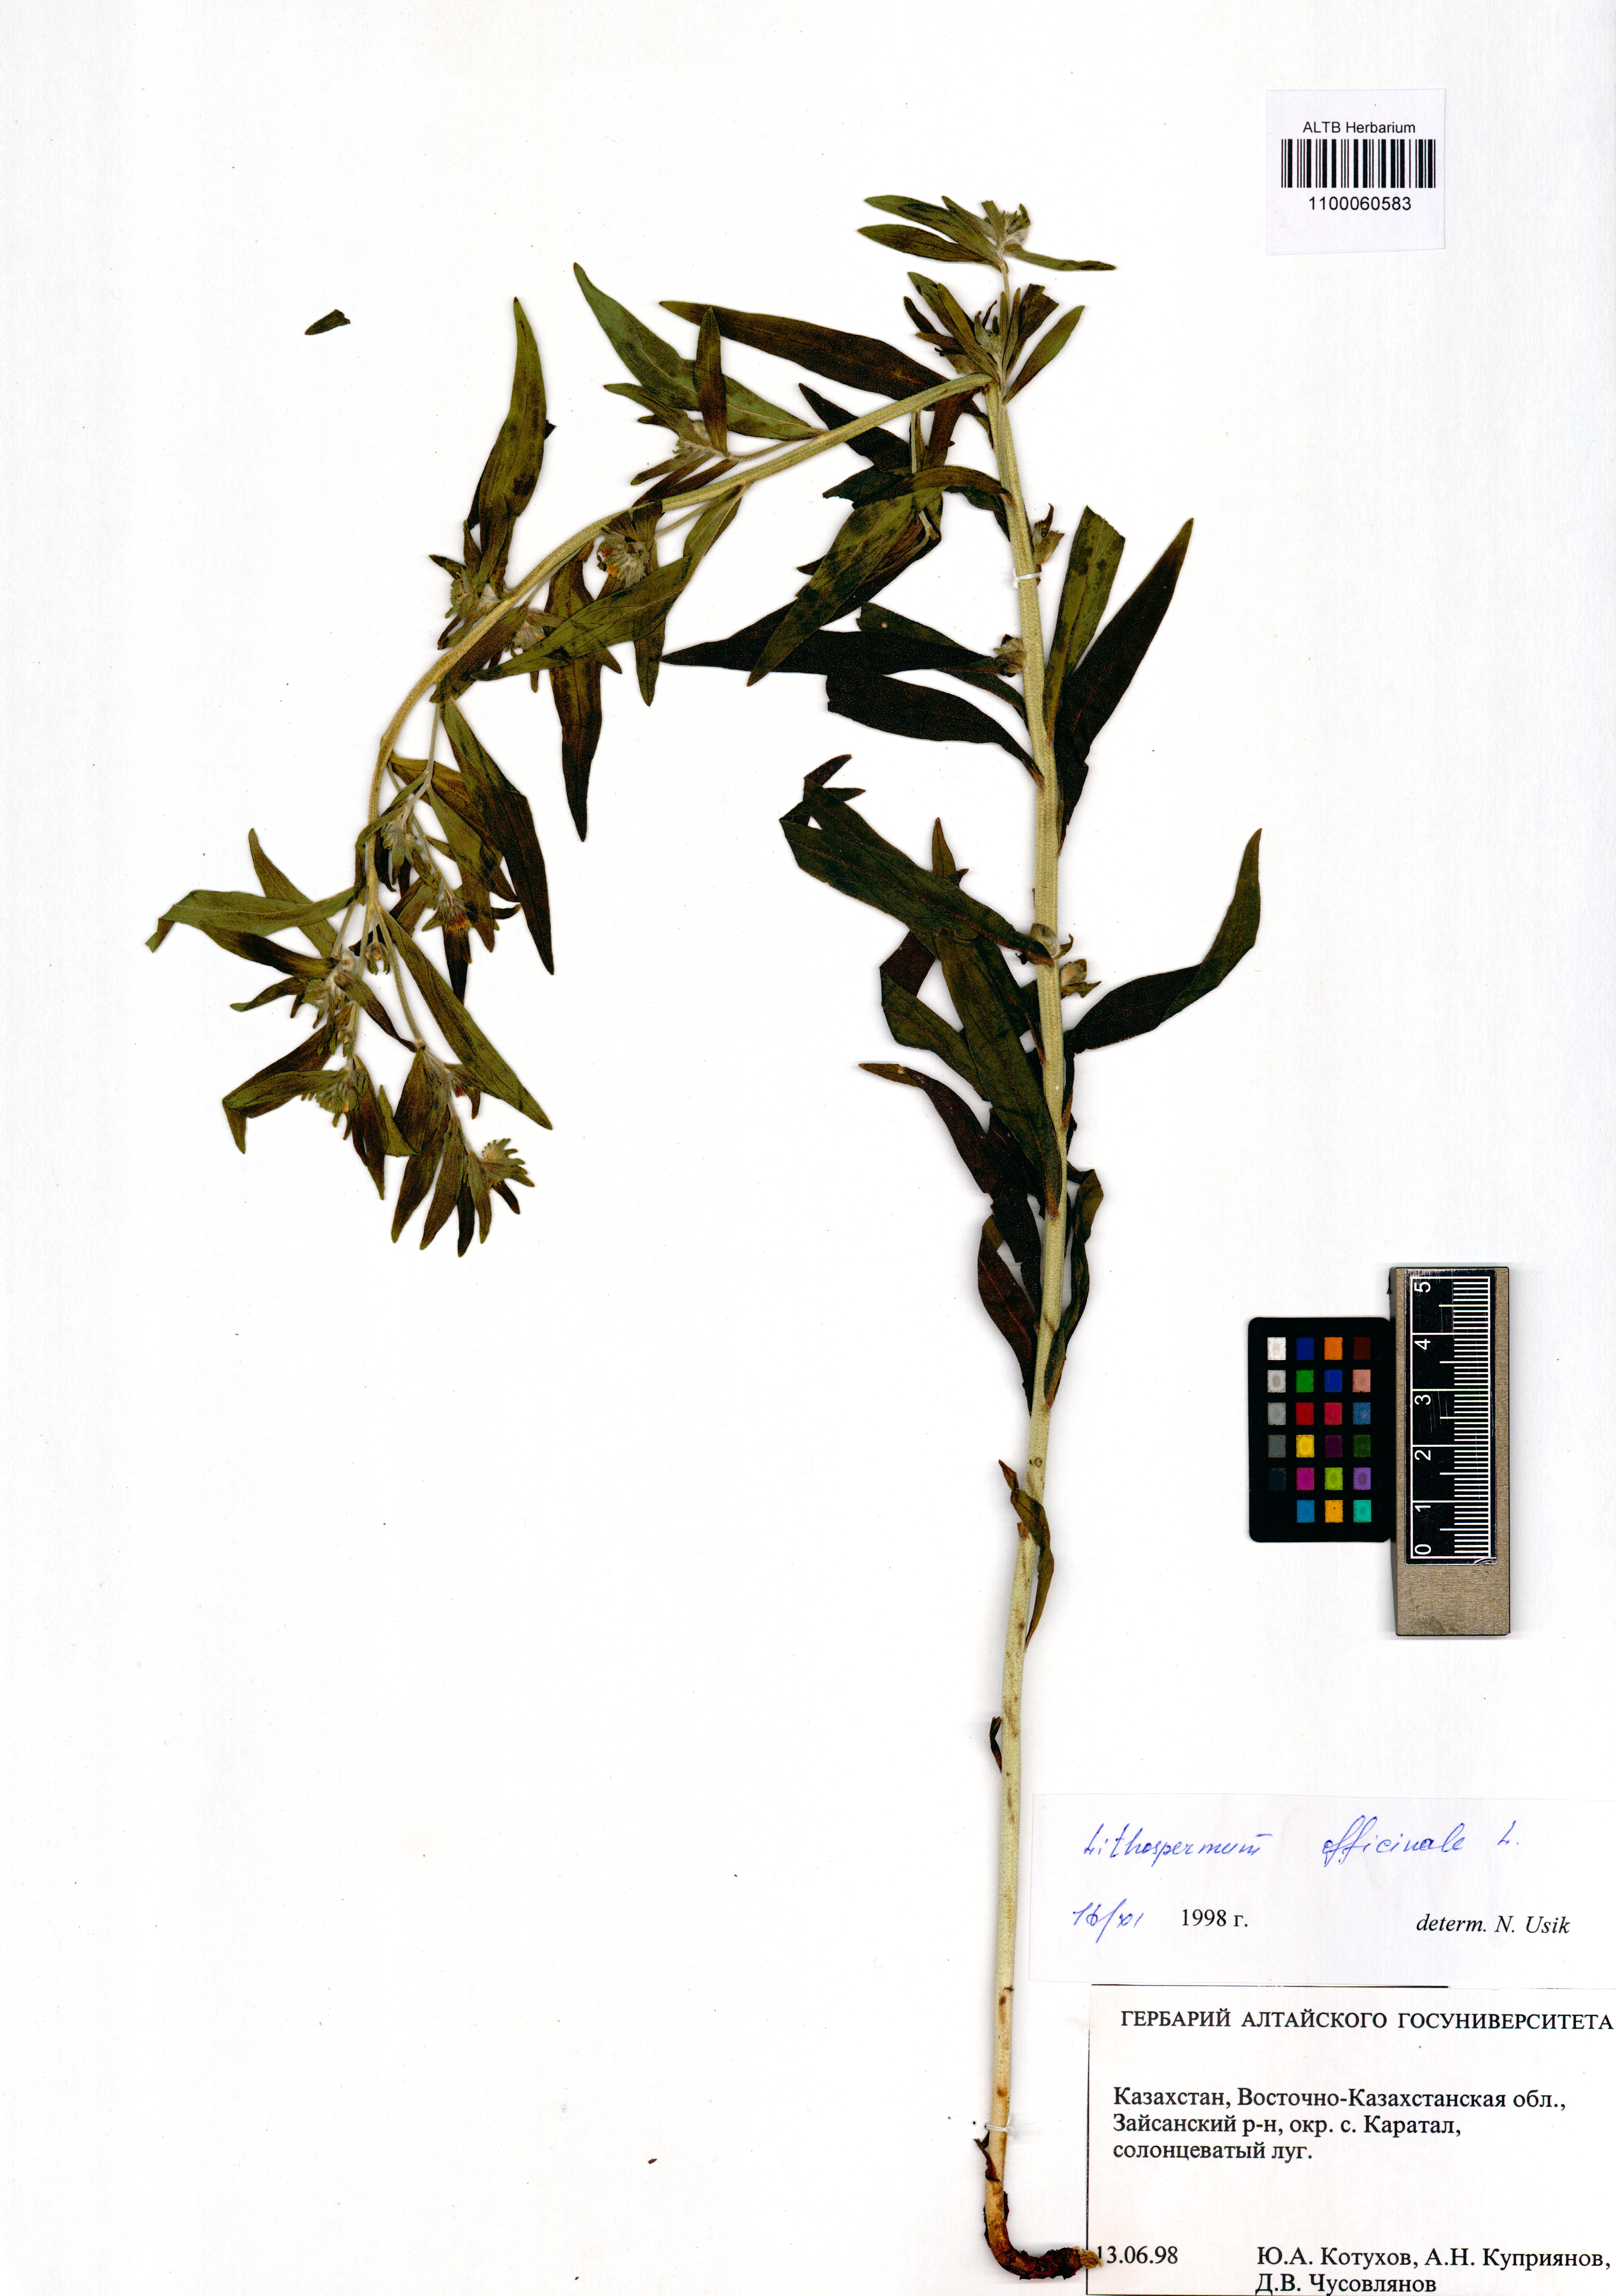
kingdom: Plantae
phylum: Tracheophyta
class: Magnoliopsida
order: Boraginales
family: Boraginaceae
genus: Lithospermum
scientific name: Lithospermum officinale
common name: Common gromwell
